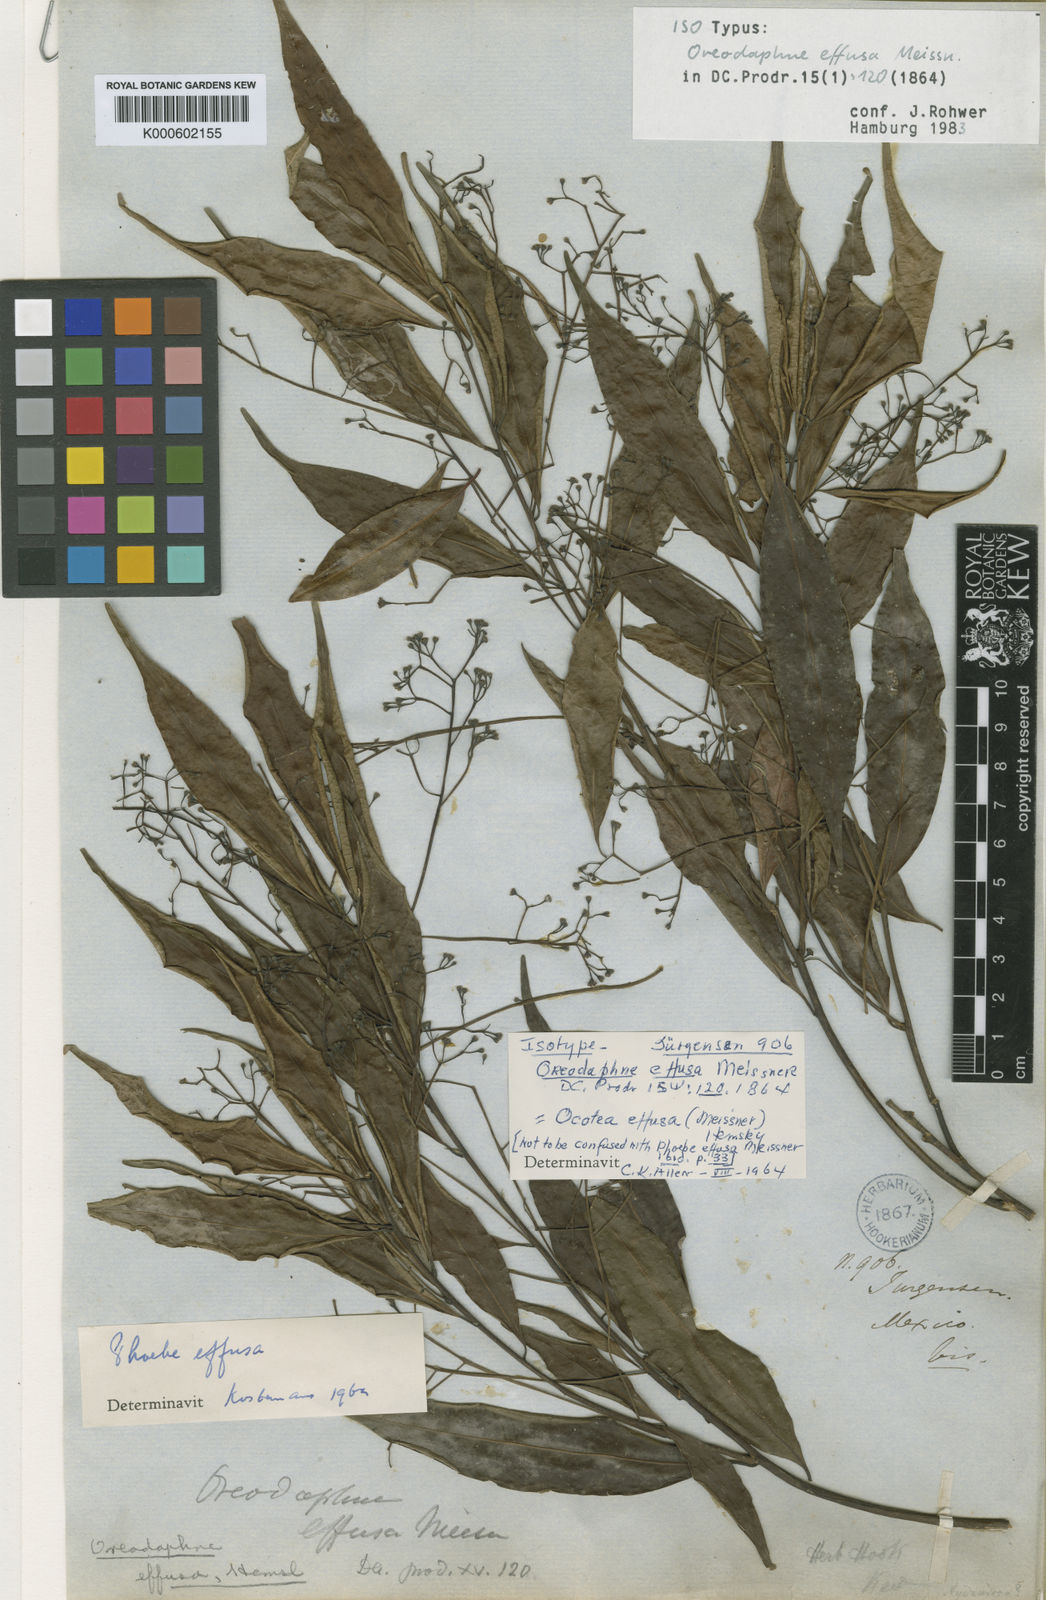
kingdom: Plantae
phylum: Tracheophyta
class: Magnoliopsida
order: Laurales
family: Lauraceae
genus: Ocotea
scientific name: Ocotea effusa
